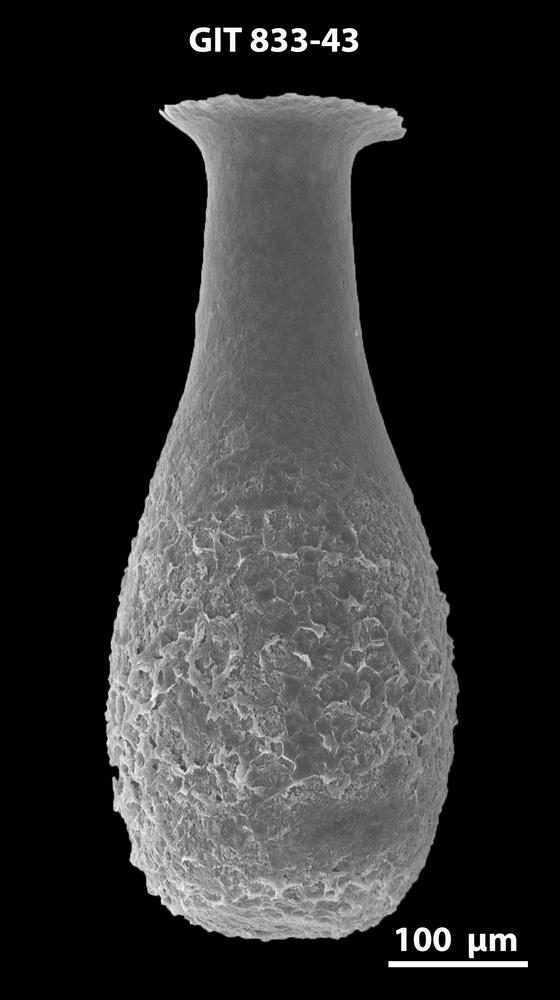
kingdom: Animalia
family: Lagenochitinidae
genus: Lagenochitina
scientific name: Lagenochitina megaesthonica
